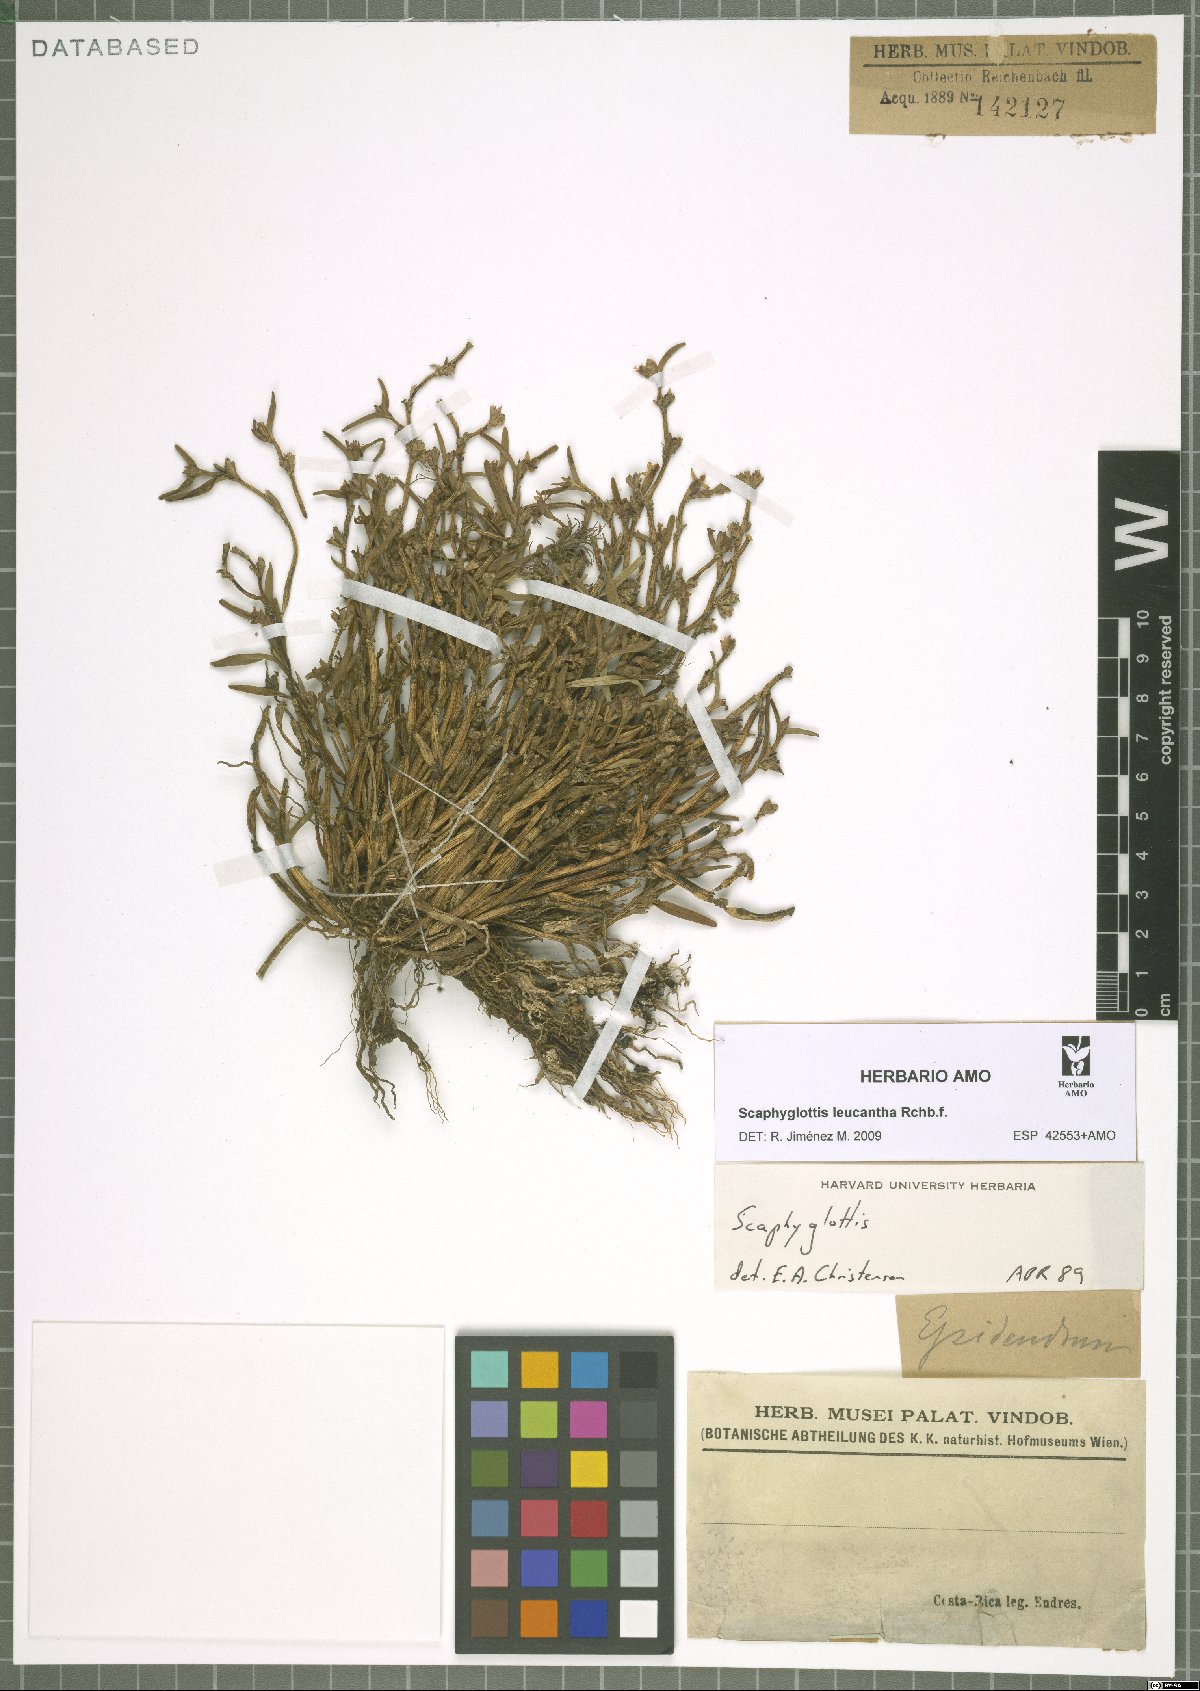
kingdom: Plantae
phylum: Tracheophyta
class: Liliopsida
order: Asparagales
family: Orchidaceae
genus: Scaphyglottis
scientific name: Scaphyglottis prolifera
